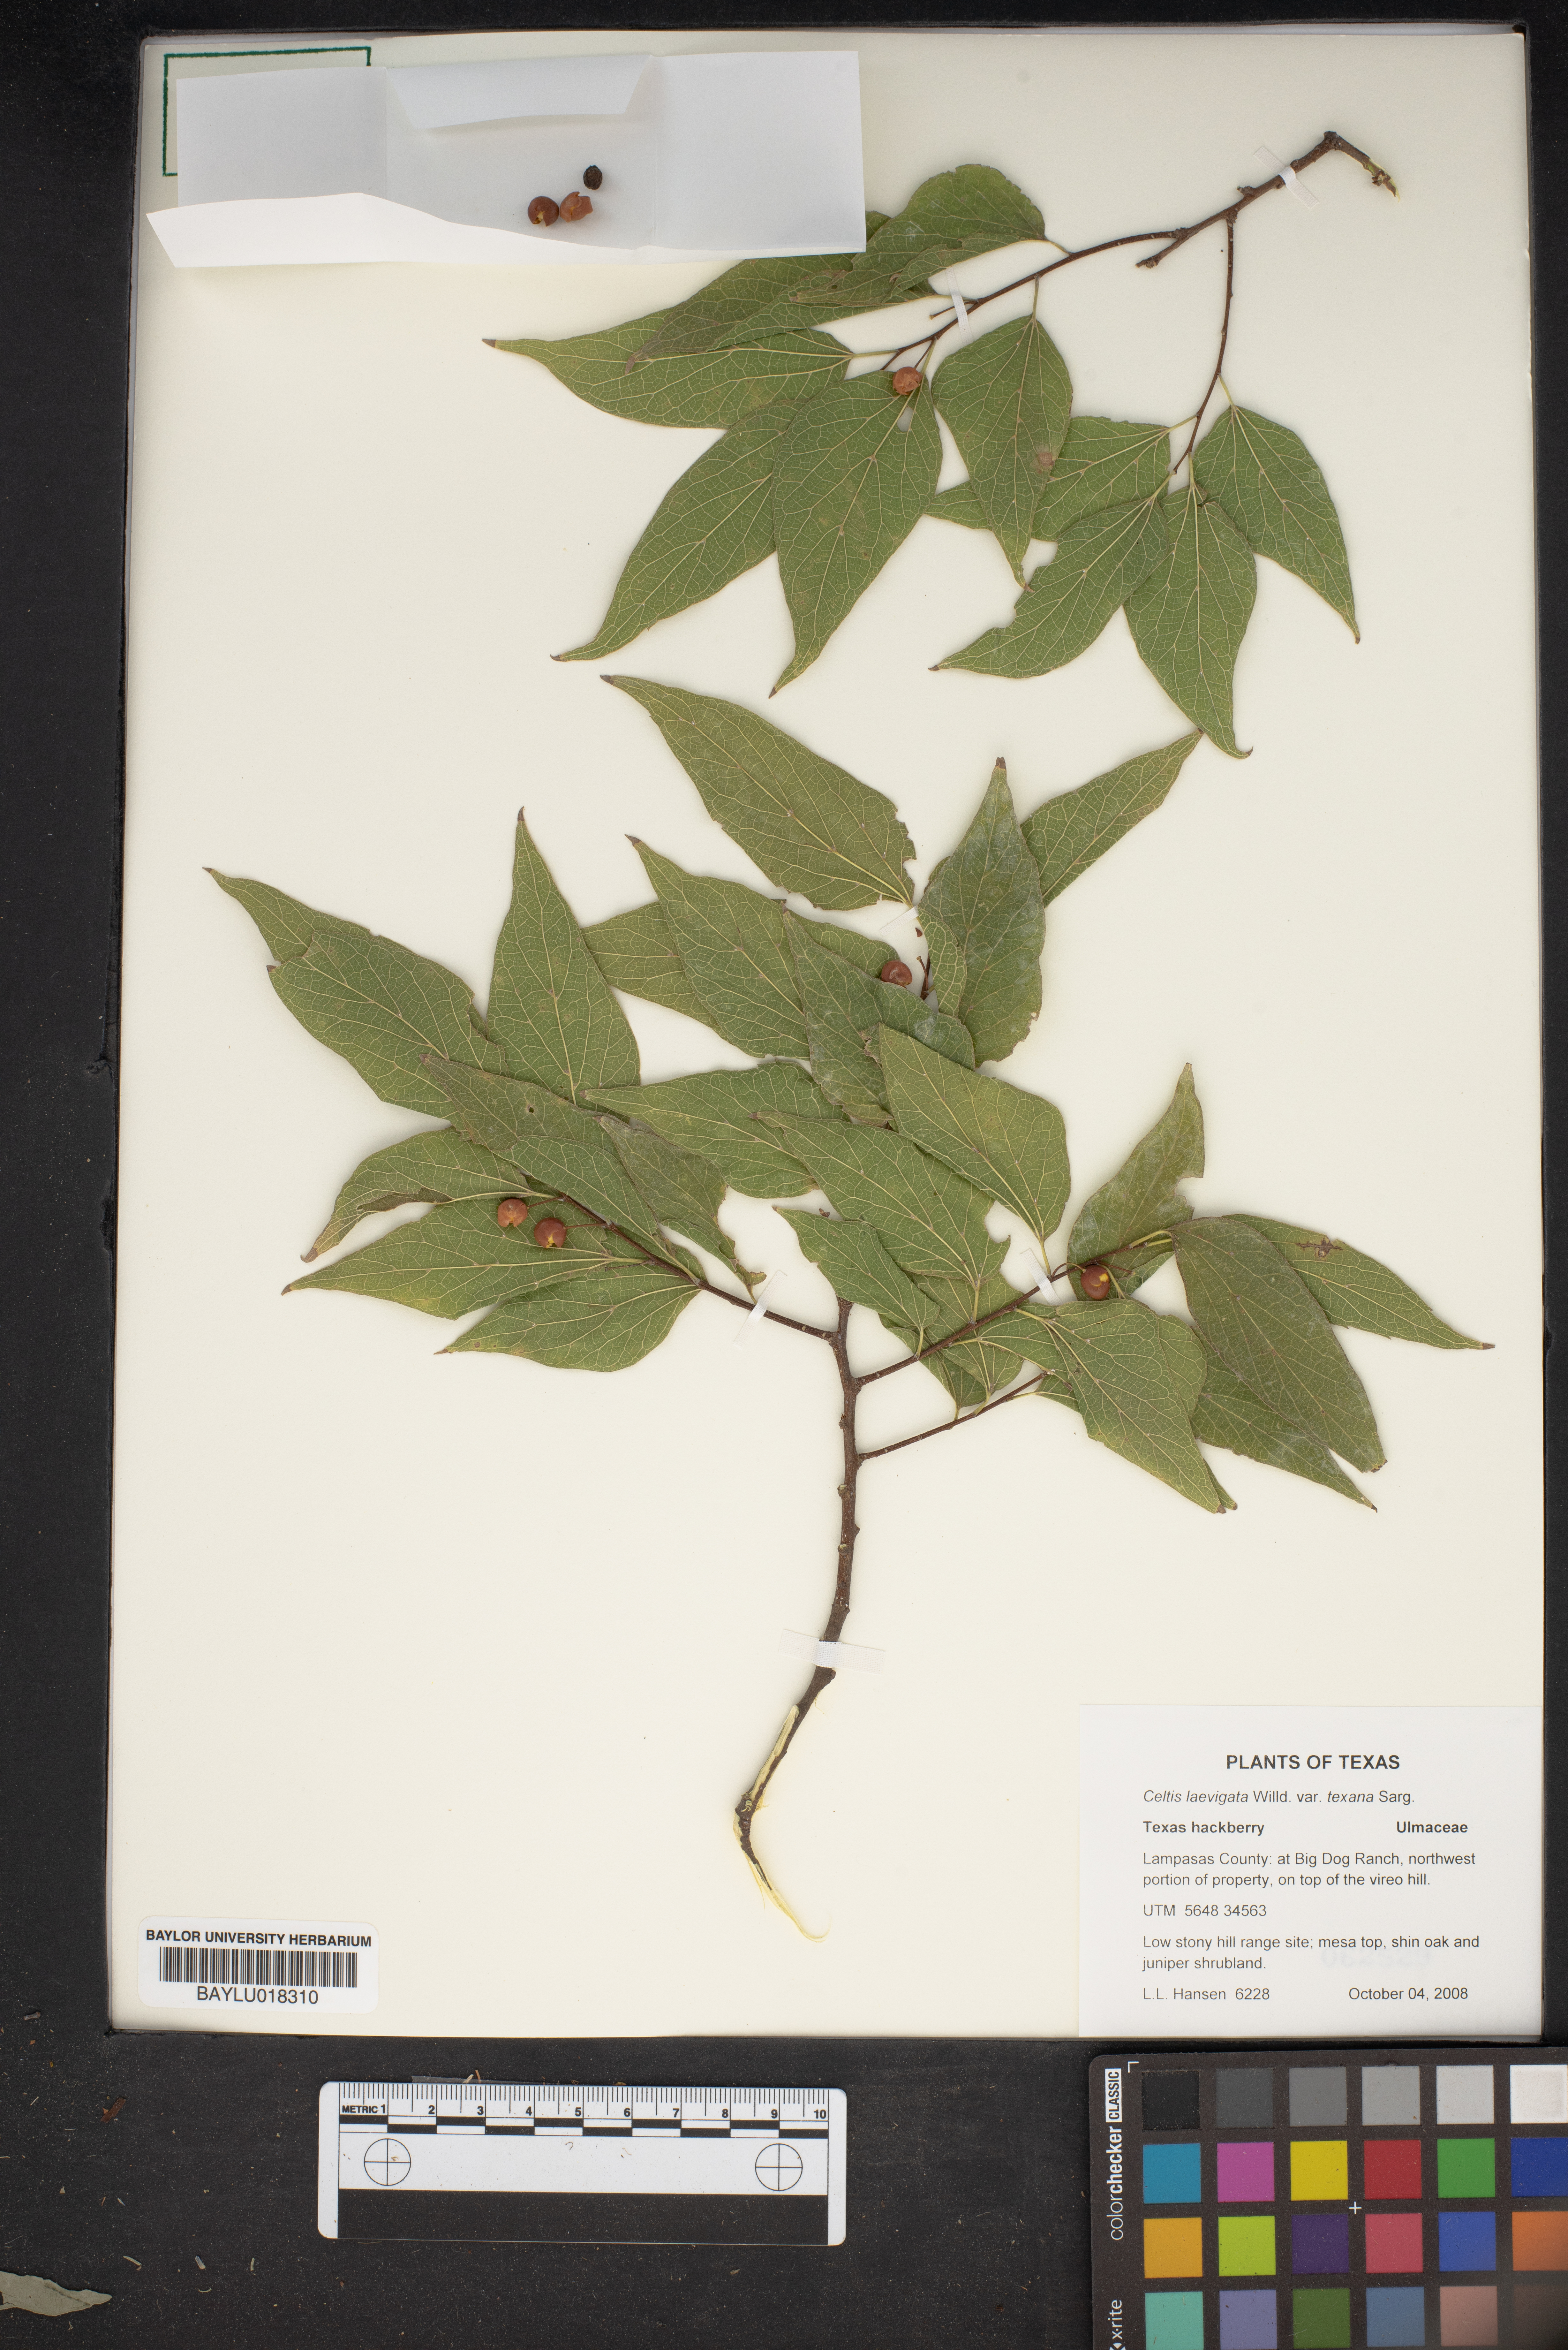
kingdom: Plantae
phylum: Tracheophyta
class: Magnoliopsida
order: Rosales
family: Cannabaceae
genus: Celtis
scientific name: Celtis laevigata
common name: Sugarberry
